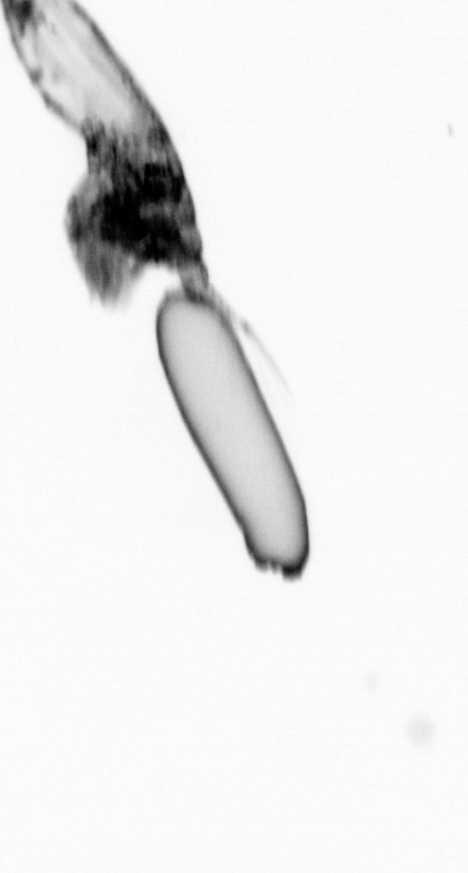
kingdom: Animalia
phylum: Arthropoda
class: Copepoda
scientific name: Copepoda
